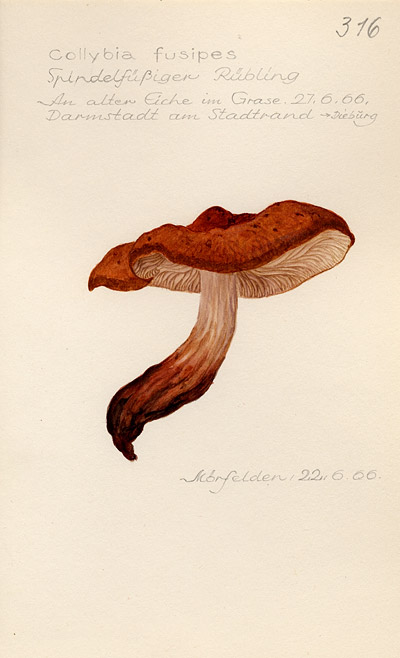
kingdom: Fungi
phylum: Basidiomycota
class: Agaricomycetes
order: Agaricales
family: Omphalotaceae
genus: Gymnopus
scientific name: Gymnopus fusipes
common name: Spindle shank
